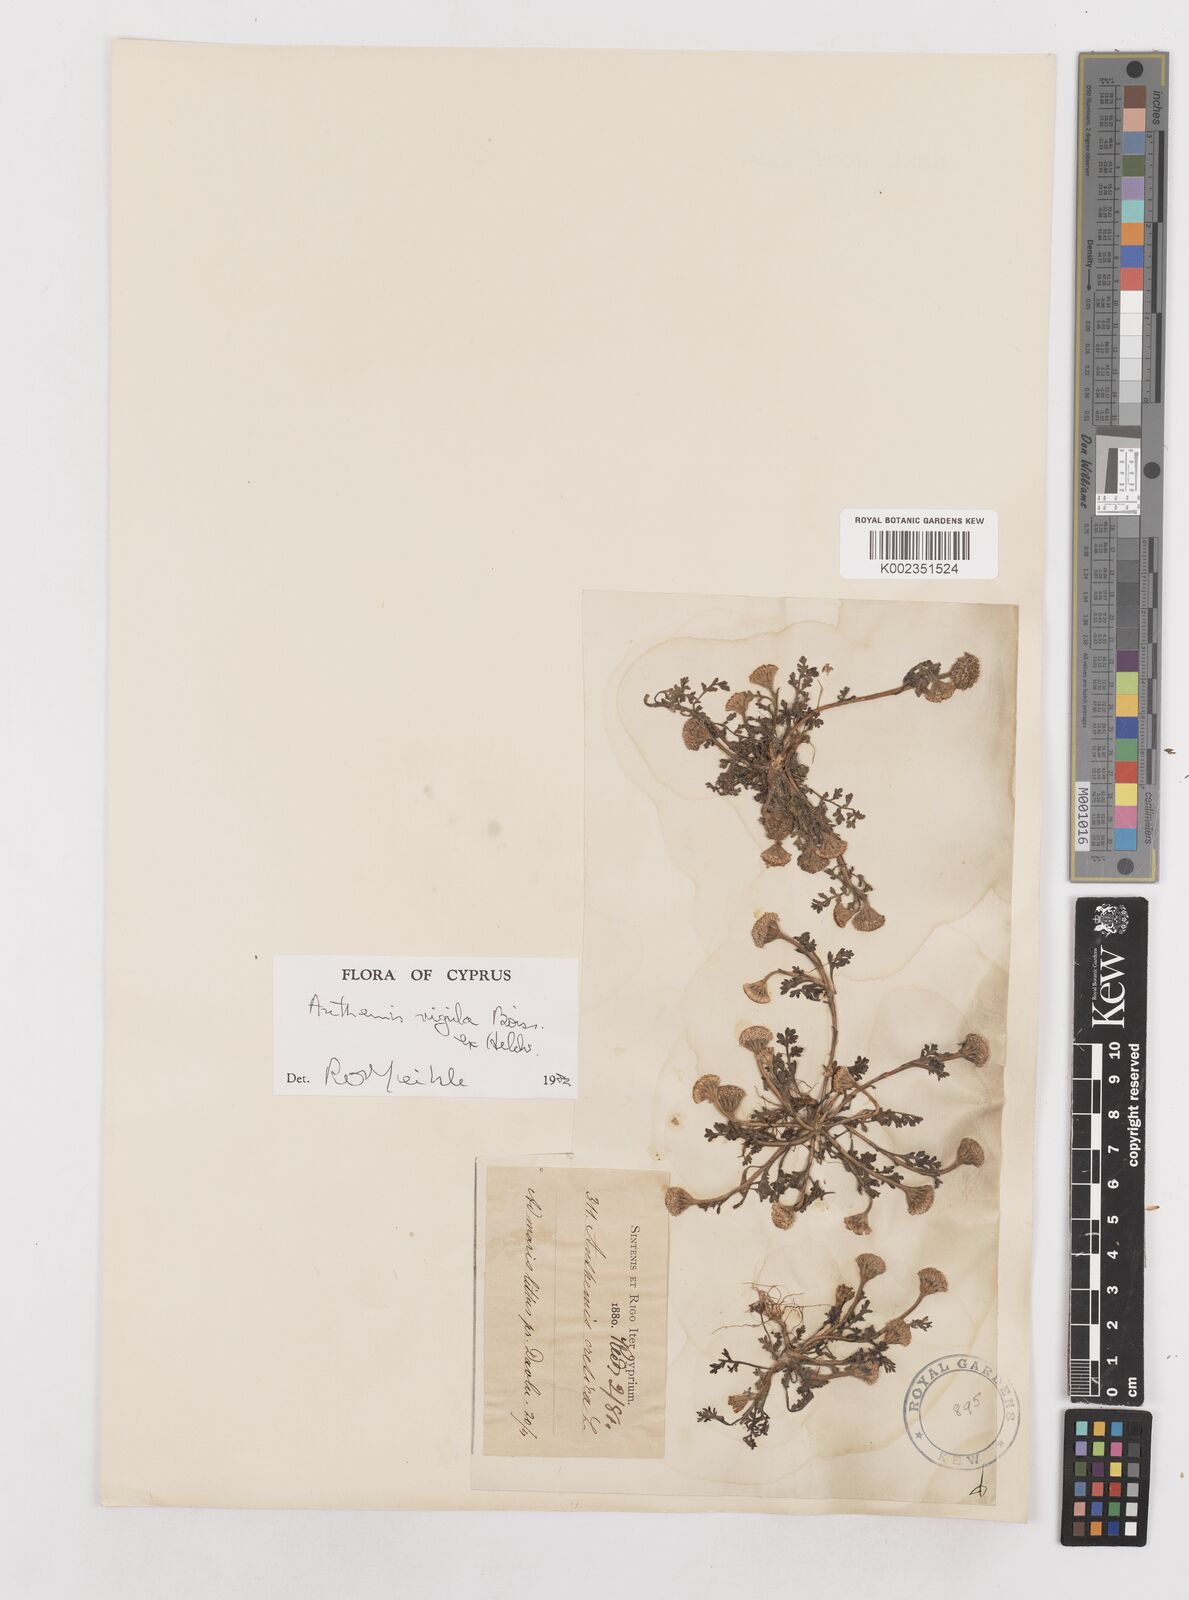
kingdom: Plantae
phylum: Tracheophyta
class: Magnoliopsida
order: Asterales
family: Asteraceae
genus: Anthemis
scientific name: Anthemis rigida
